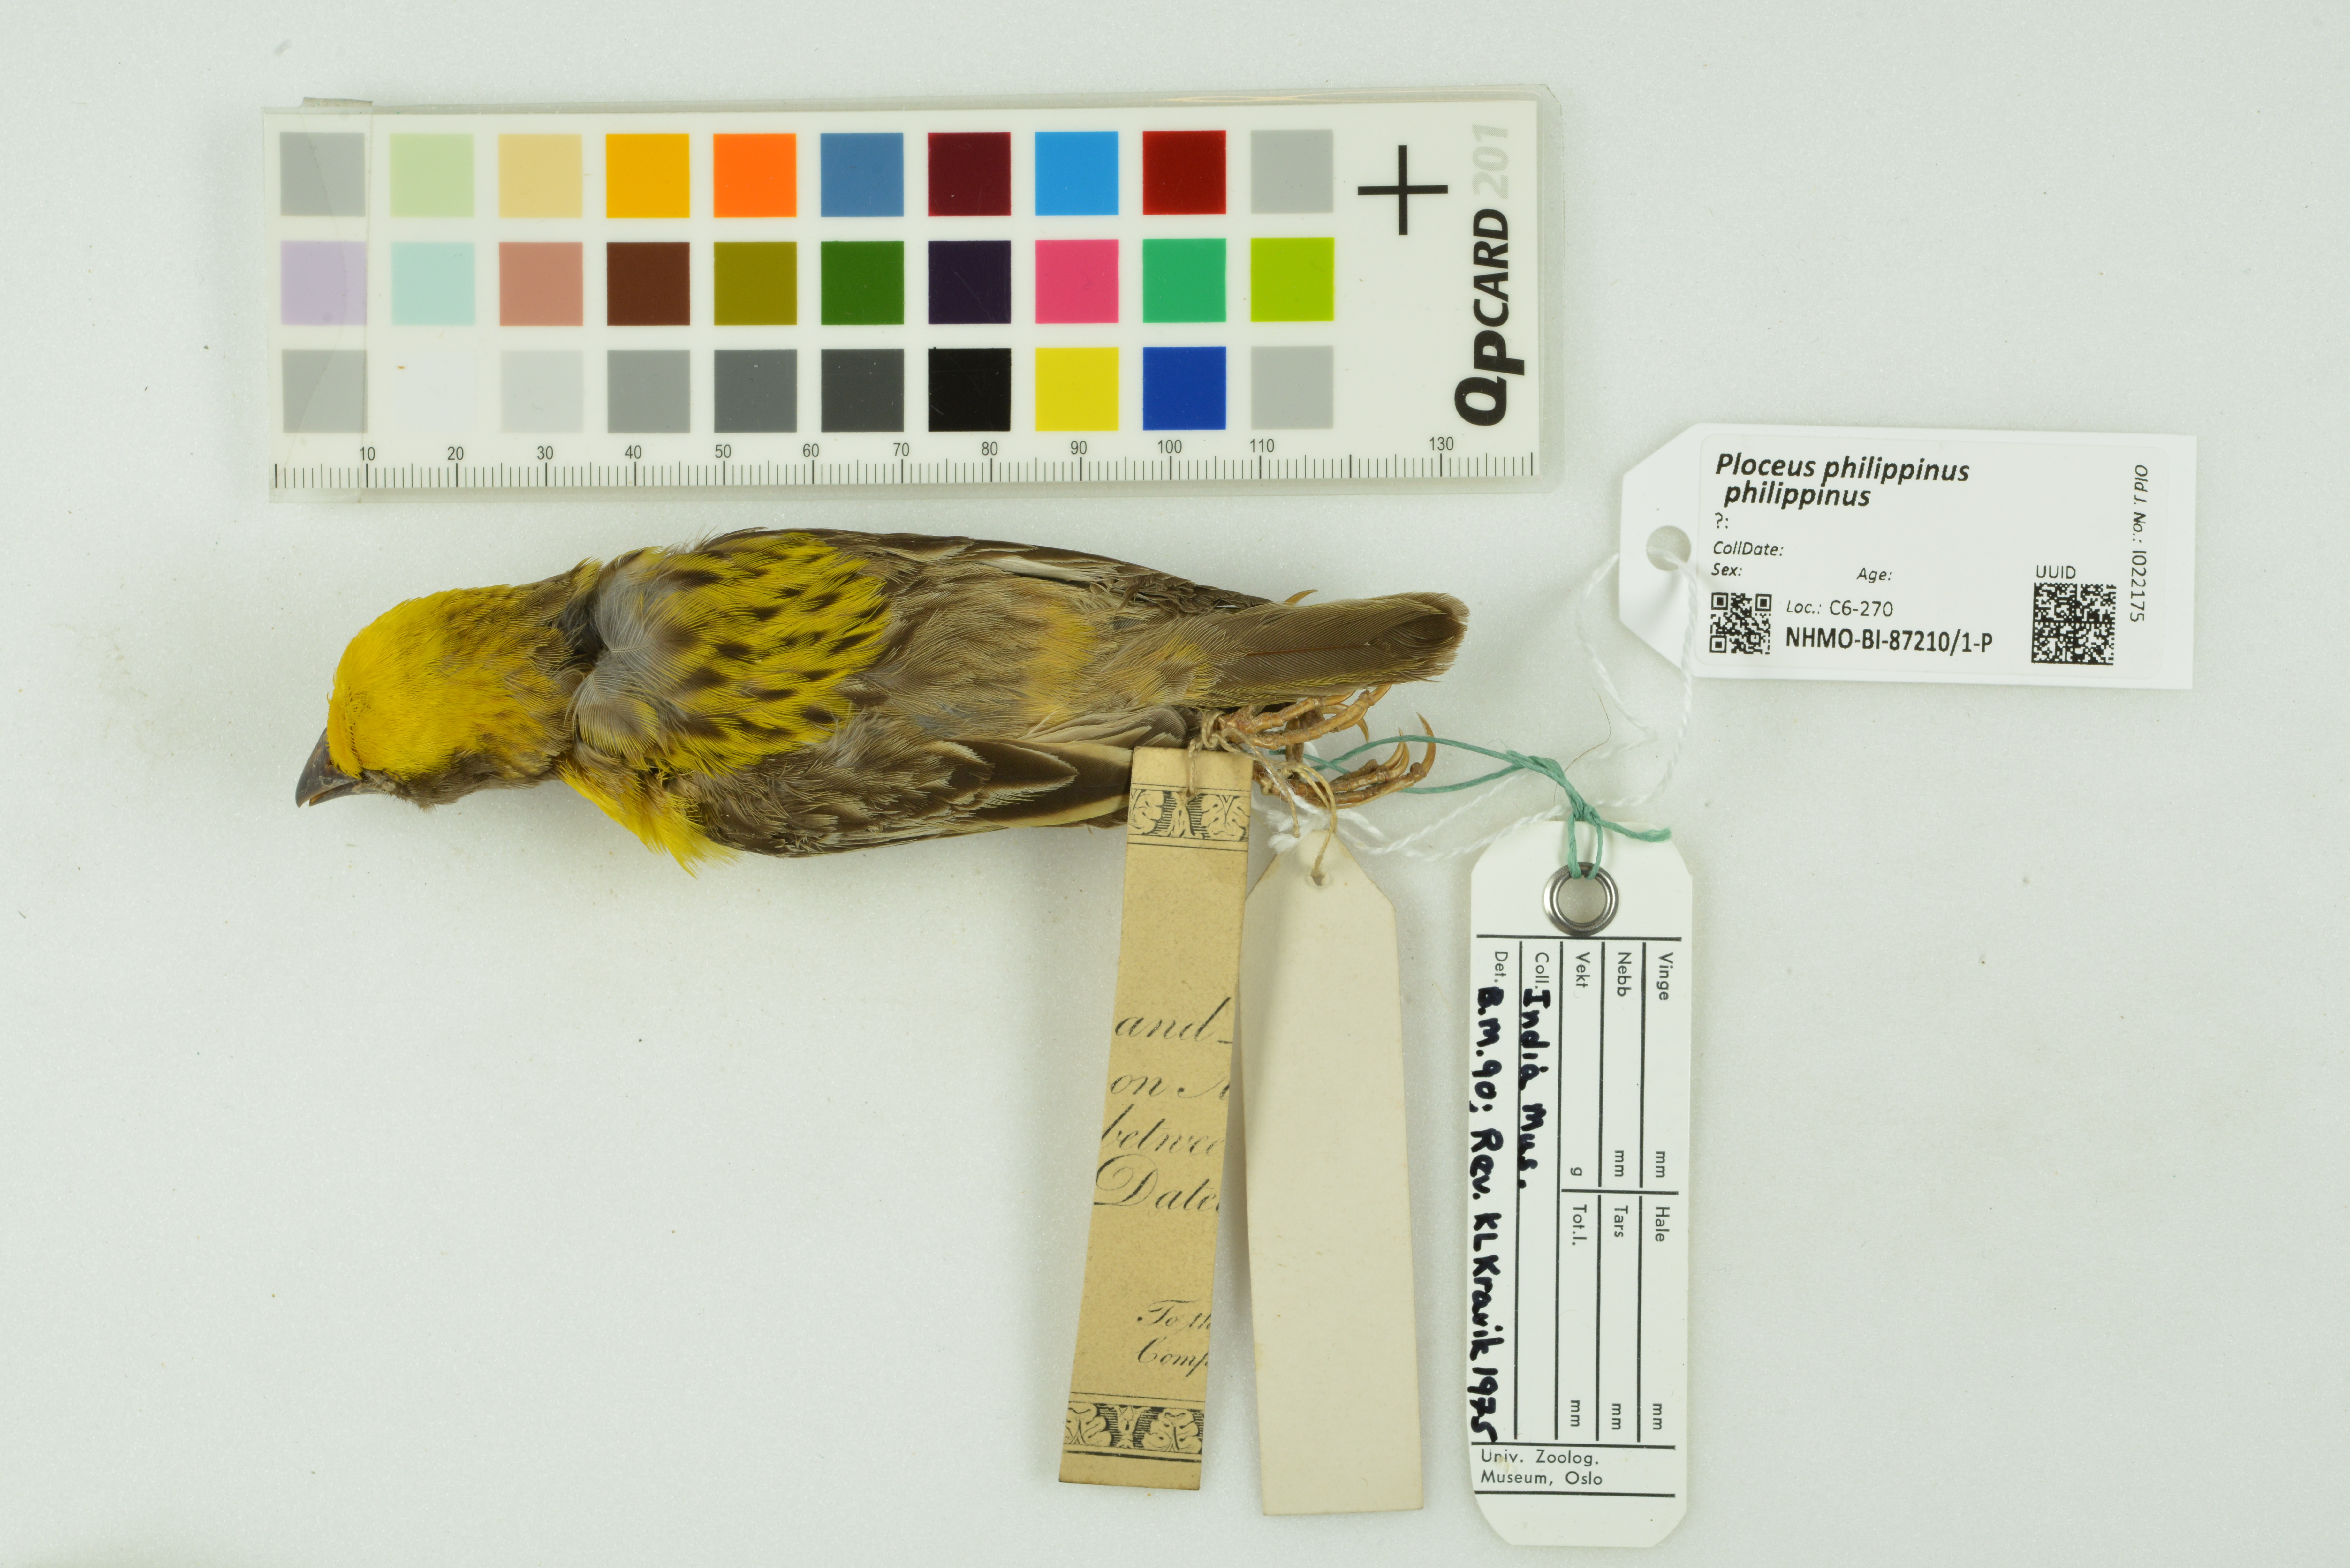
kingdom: Animalia
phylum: Chordata
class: Aves
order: Passeriformes
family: Ploceidae
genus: Ploceus
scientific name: Ploceus philippinus
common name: Baya weaver
